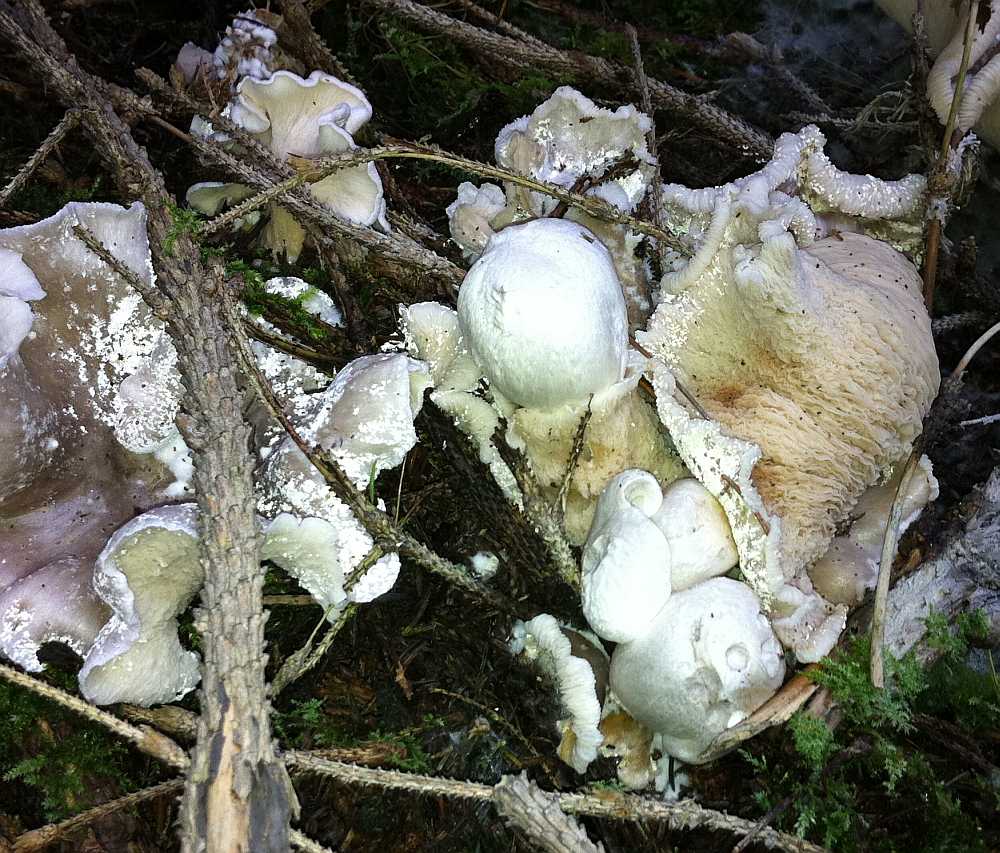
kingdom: Fungi
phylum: Basidiomycota
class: Agaricomycetes
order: Agaricales
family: Pluteaceae
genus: Volvariella
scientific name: Volvariella surrecta
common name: snyltende posesvamp
